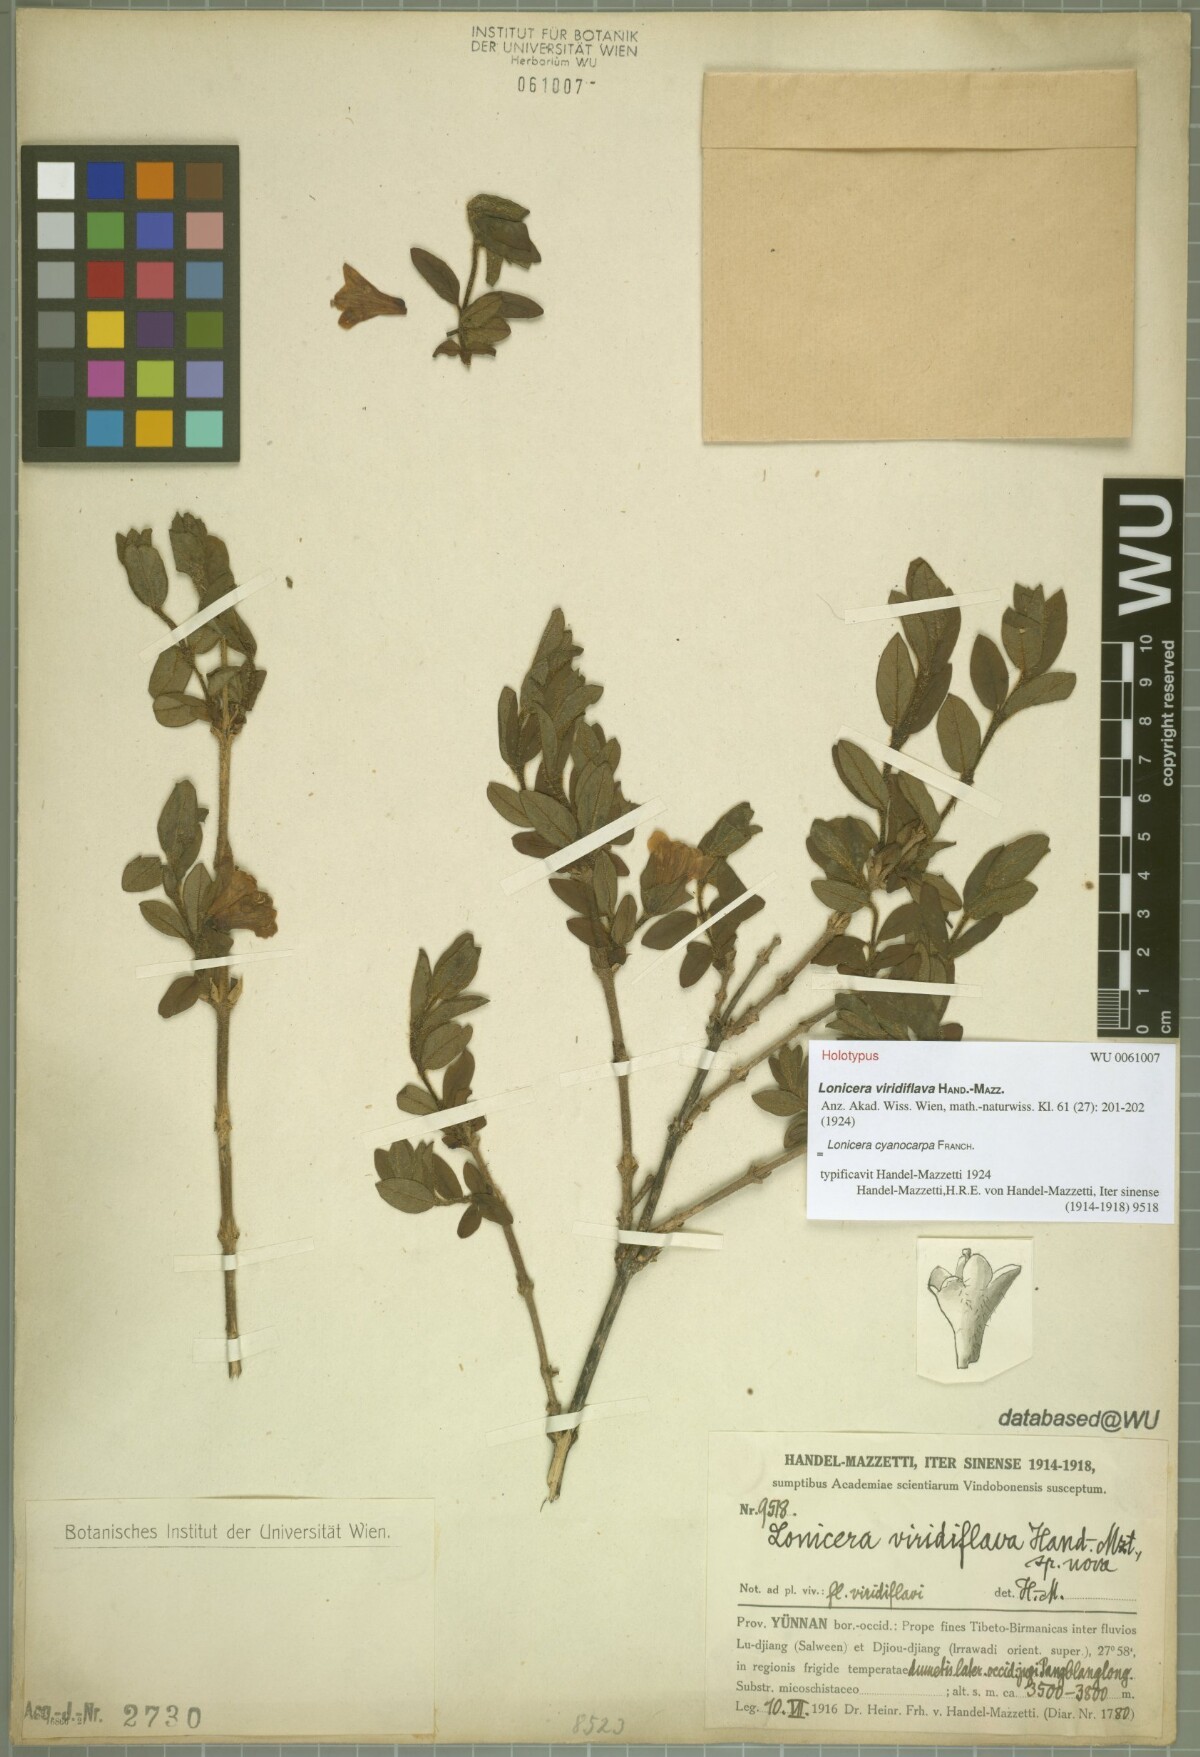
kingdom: Plantae
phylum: Tracheophyta
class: Magnoliopsida
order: Dipsacales
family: Caprifoliaceae
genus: Lonicera
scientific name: Lonicera cyanocarpa
